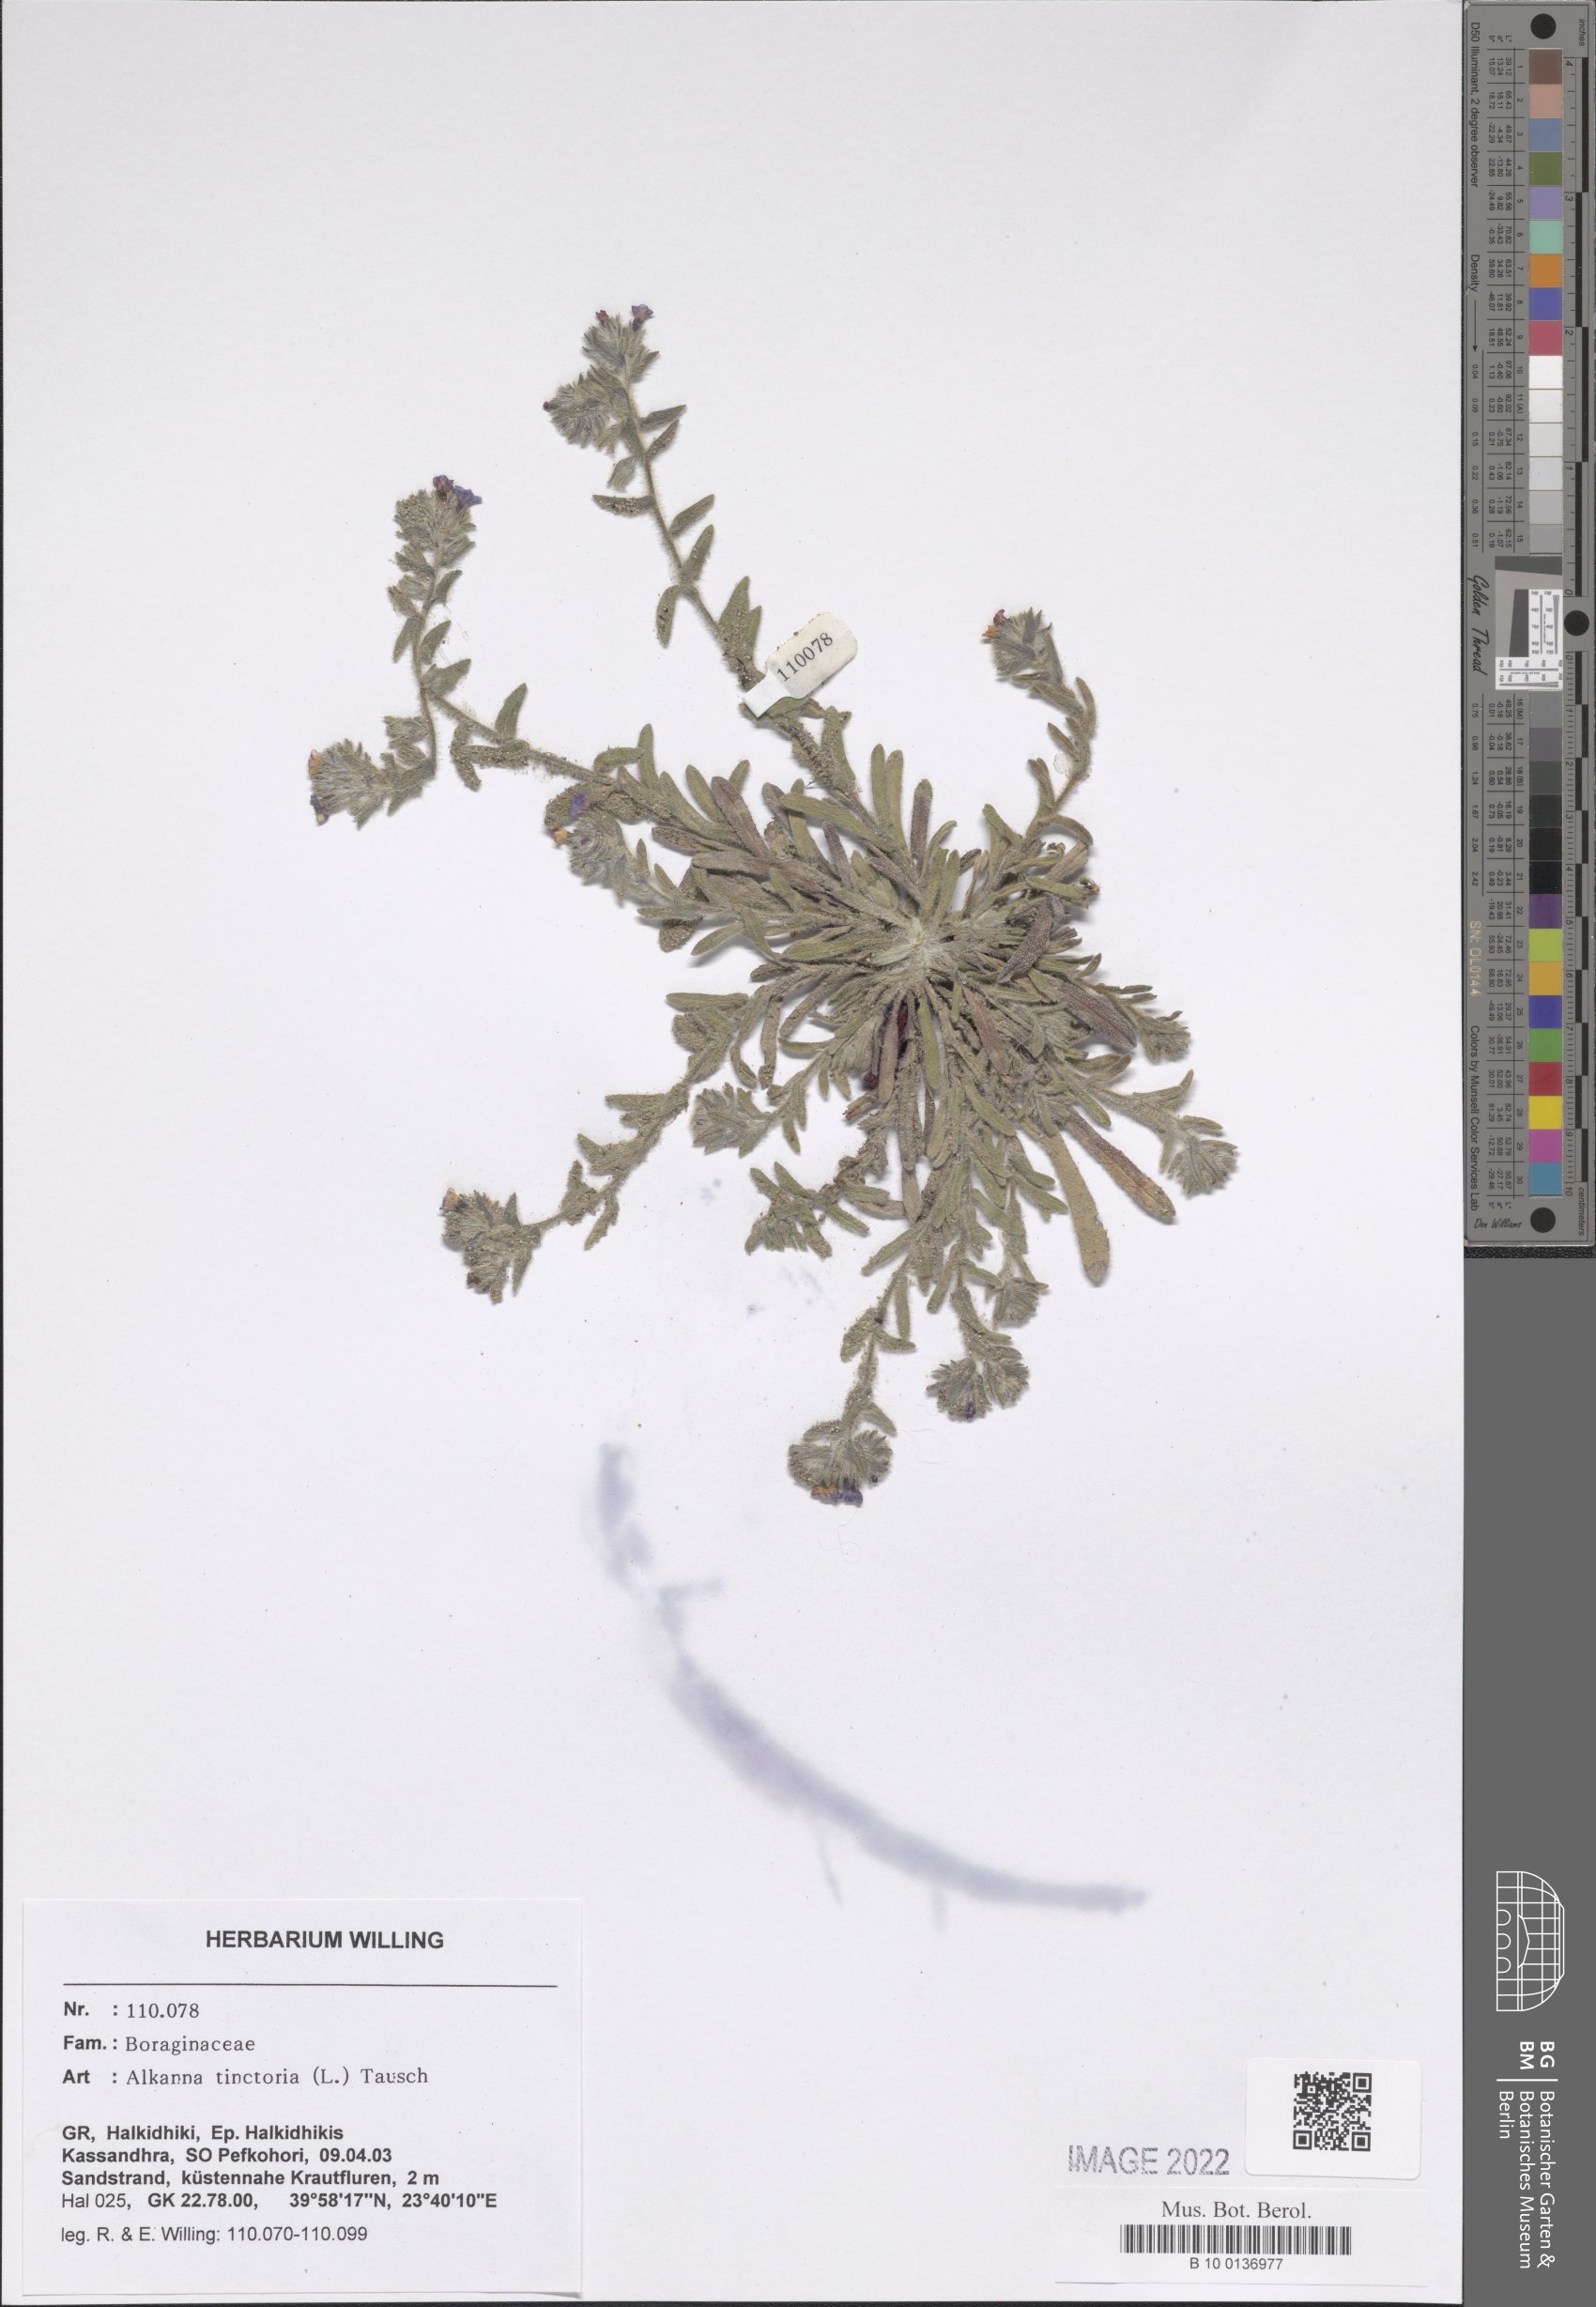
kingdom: Plantae
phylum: Tracheophyta
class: Magnoliopsida
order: Boraginales
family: Boraginaceae
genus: Alkanna
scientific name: Alkanna tinctoria
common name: Dyer's-alkanet
